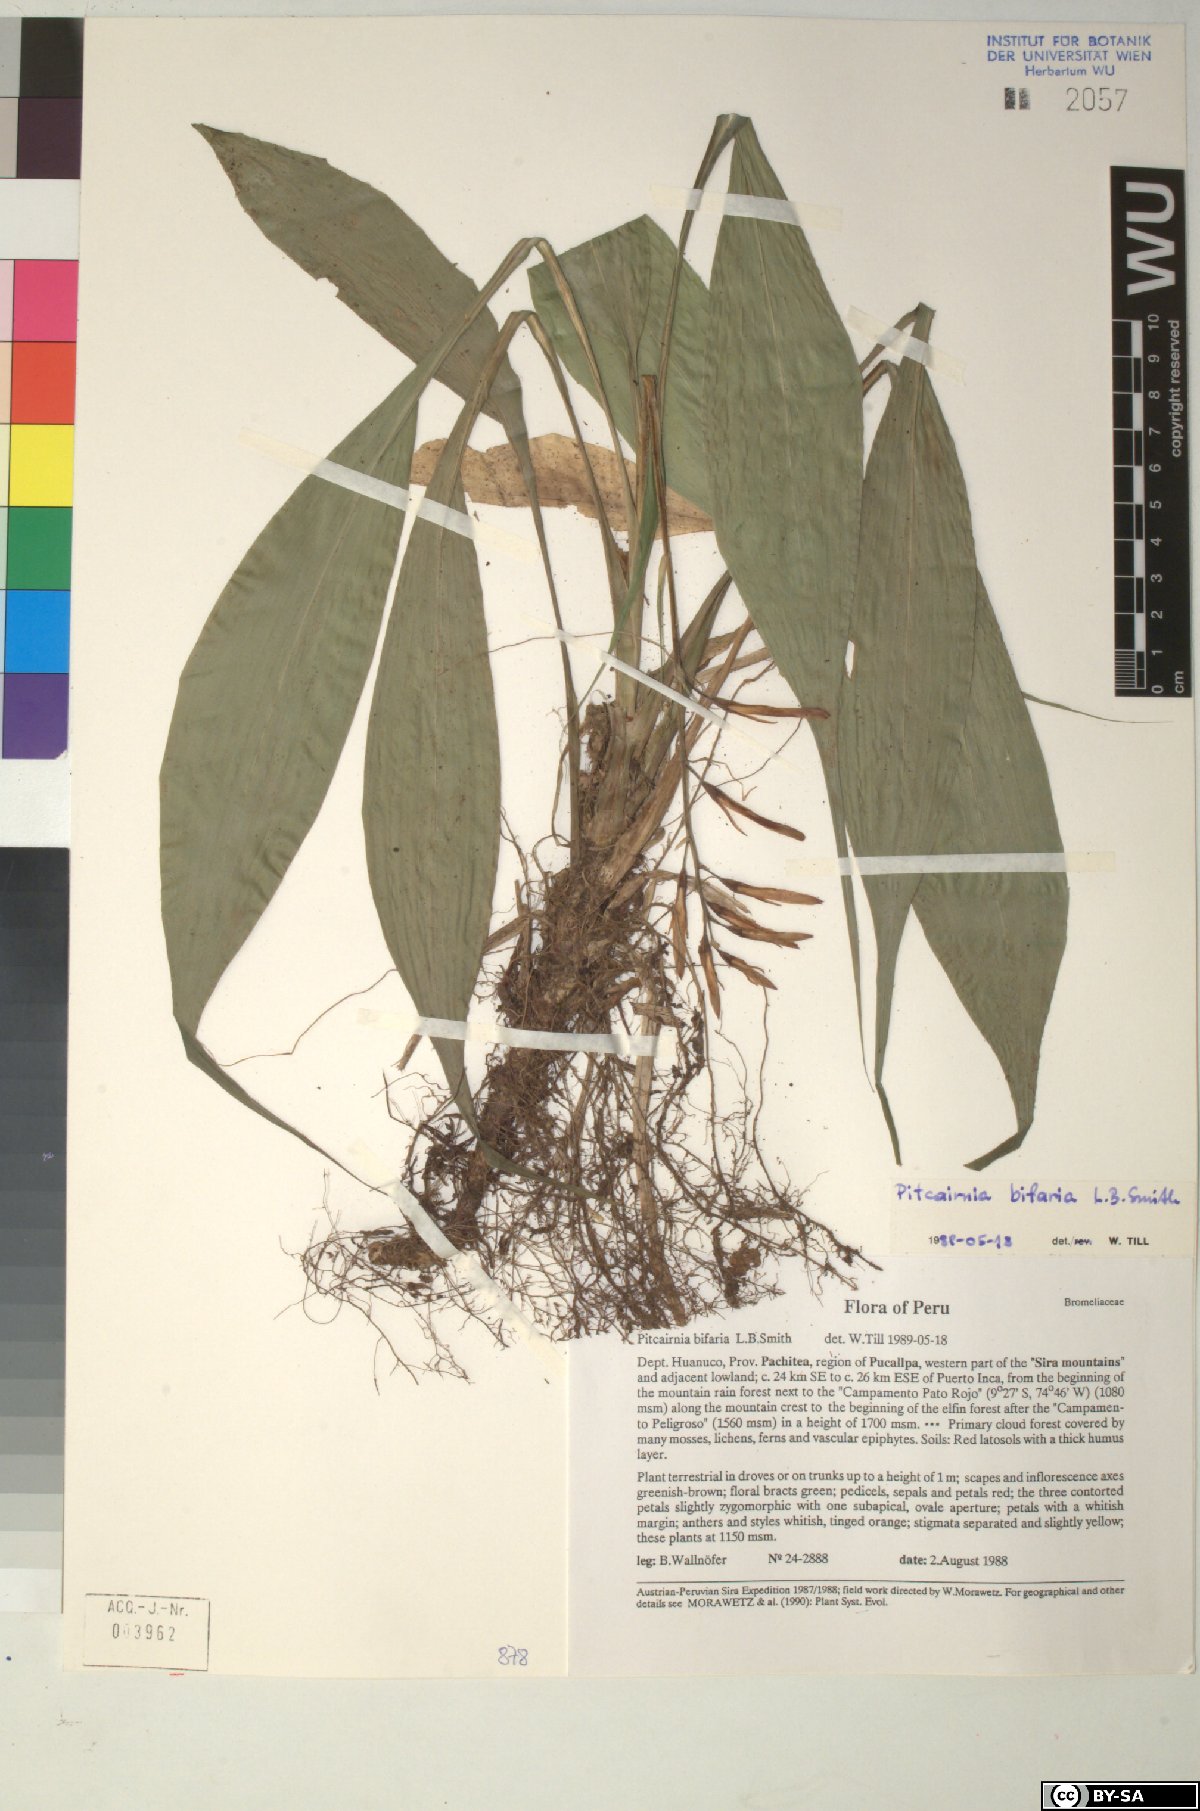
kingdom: Plantae
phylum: Tracheophyta
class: Liliopsida
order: Poales
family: Bromeliaceae
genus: Pitcairnia
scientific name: Pitcairnia
